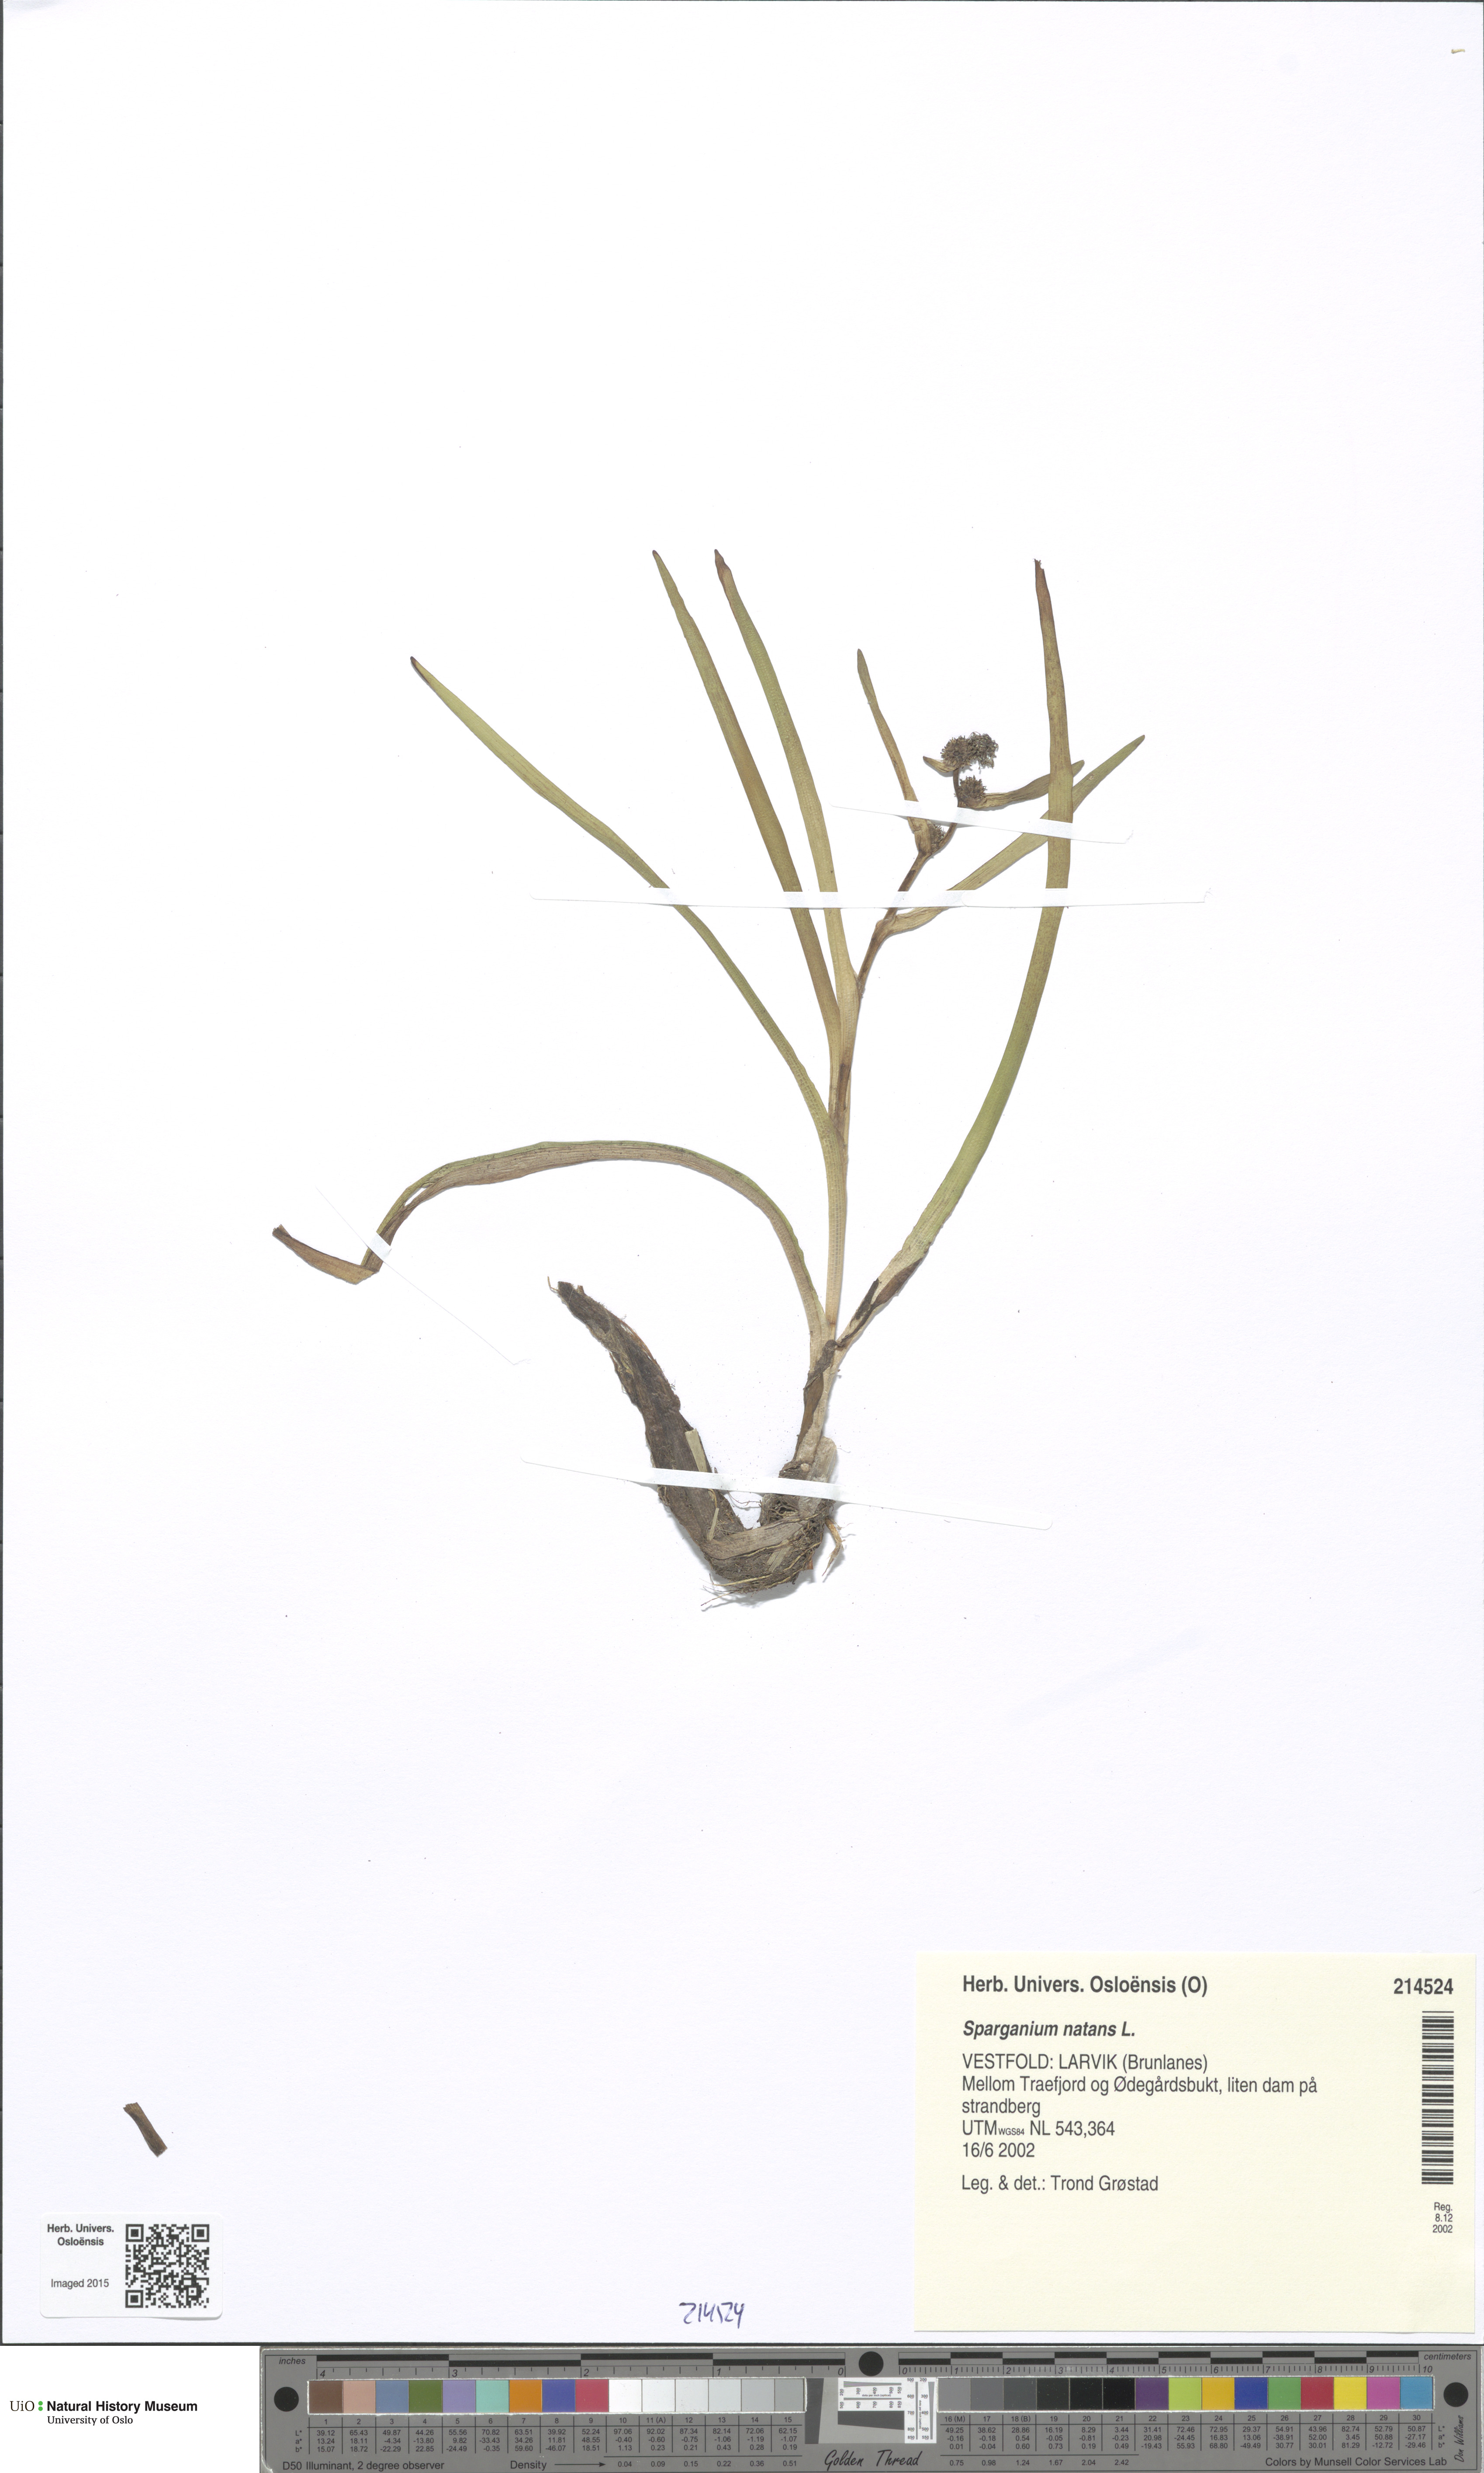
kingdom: Plantae
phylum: Tracheophyta
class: Liliopsida
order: Poales
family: Typhaceae
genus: Sparganium
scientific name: Sparganium natans
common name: Least bur-reed
